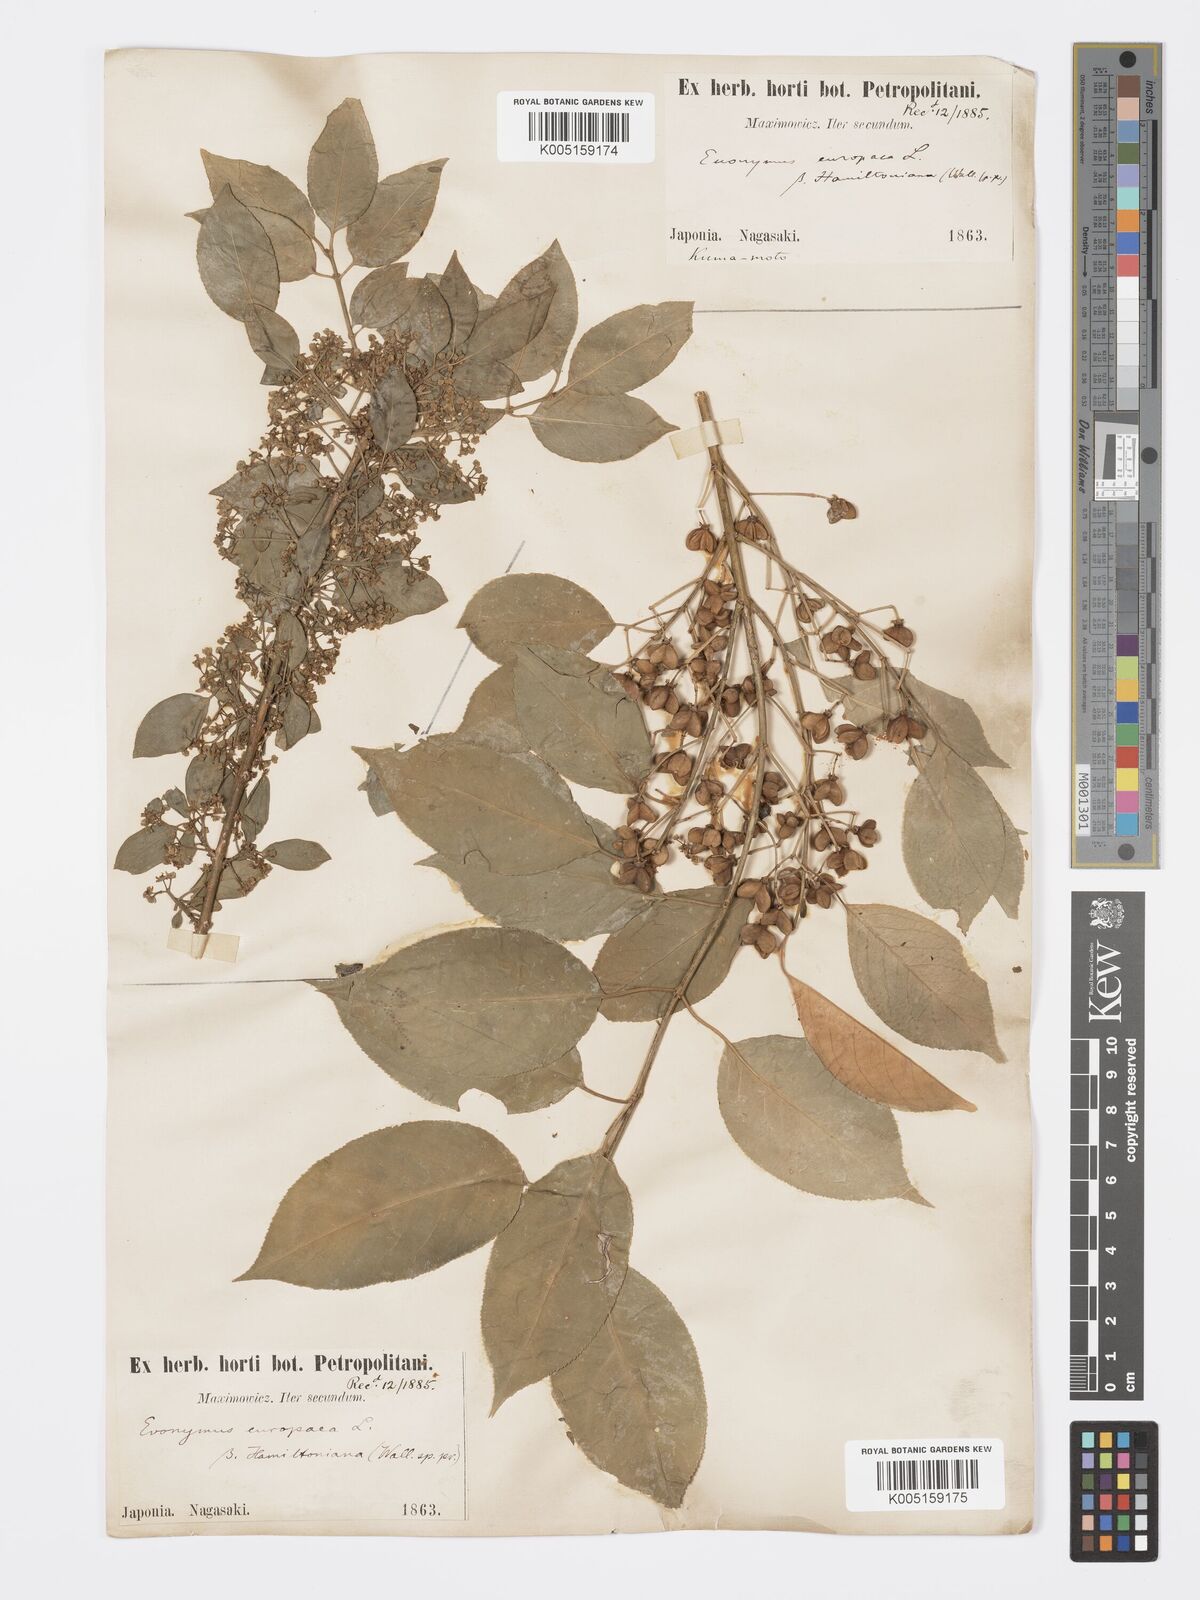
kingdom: Plantae
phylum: Tracheophyta
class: Magnoliopsida
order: Celastrales
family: Celastraceae
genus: Euonymus
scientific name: Euonymus hamiltonianus
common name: Hamilton's spindletree
